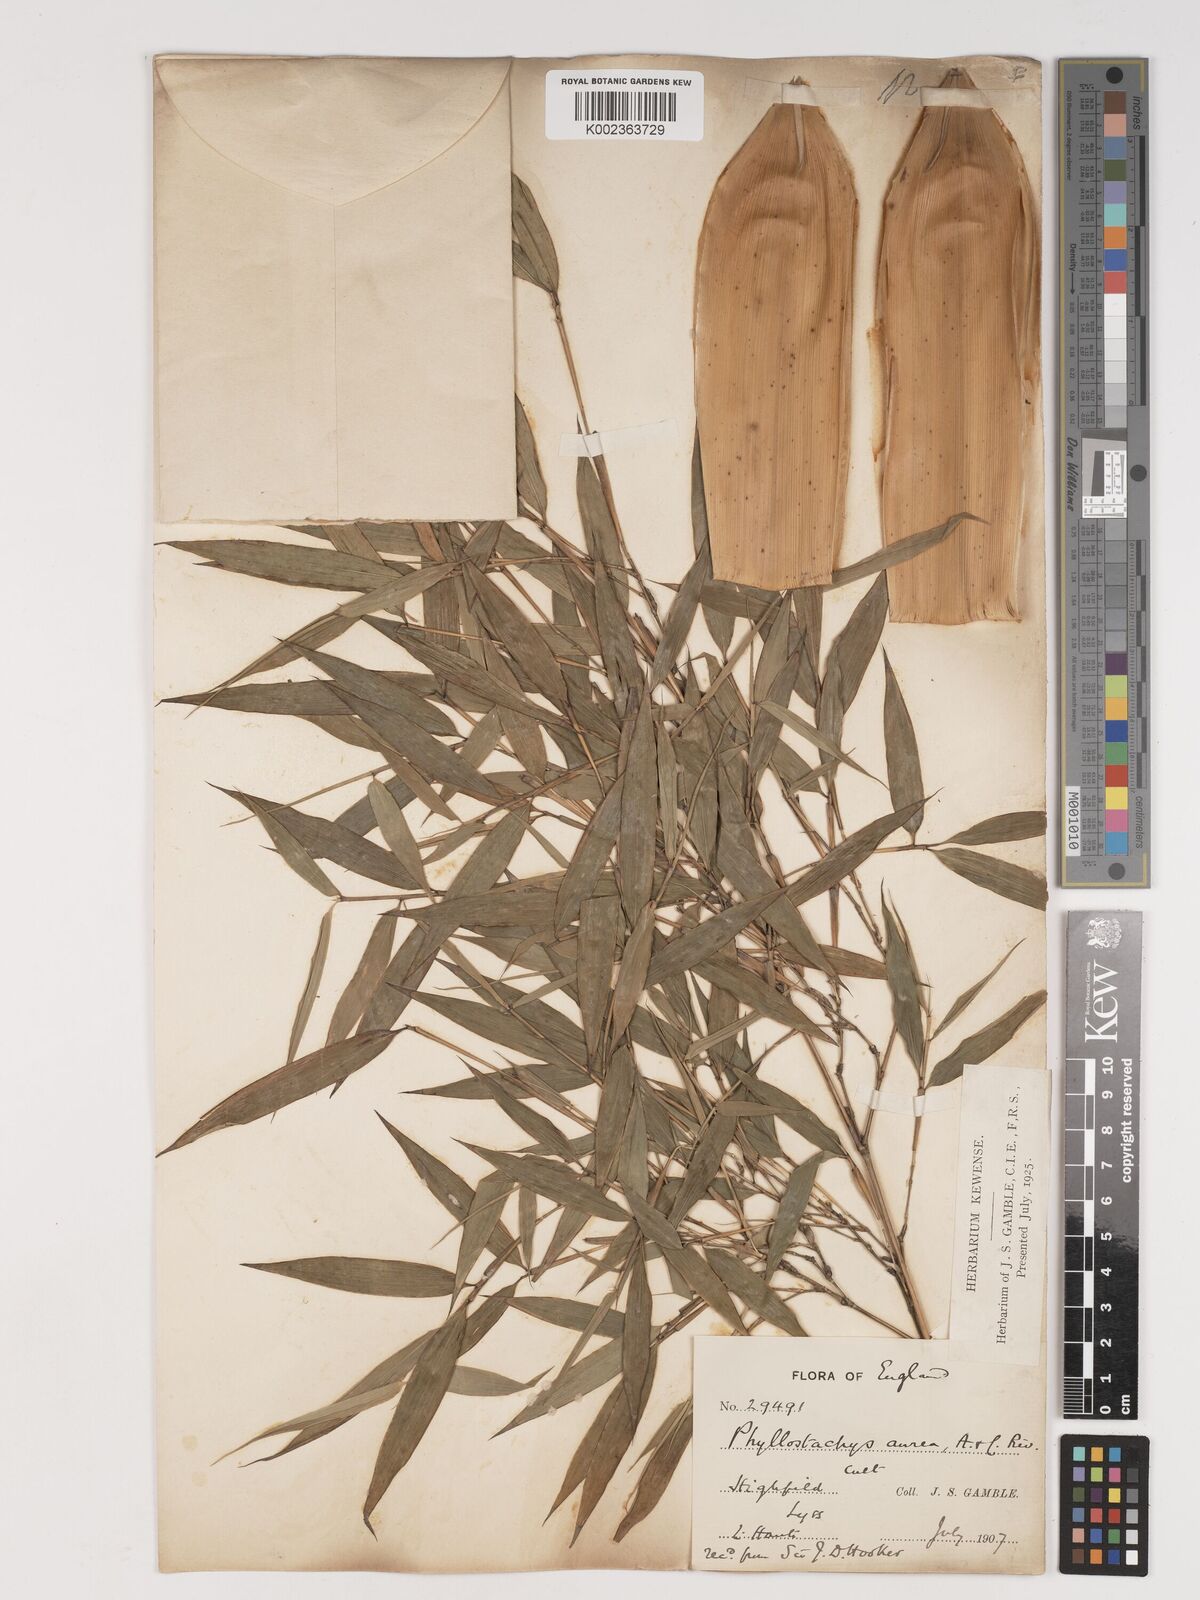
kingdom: Plantae
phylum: Tracheophyta
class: Liliopsida
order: Poales
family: Poaceae
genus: Phyllostachys
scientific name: Phyllostachys aurea
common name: Golden bamboo
